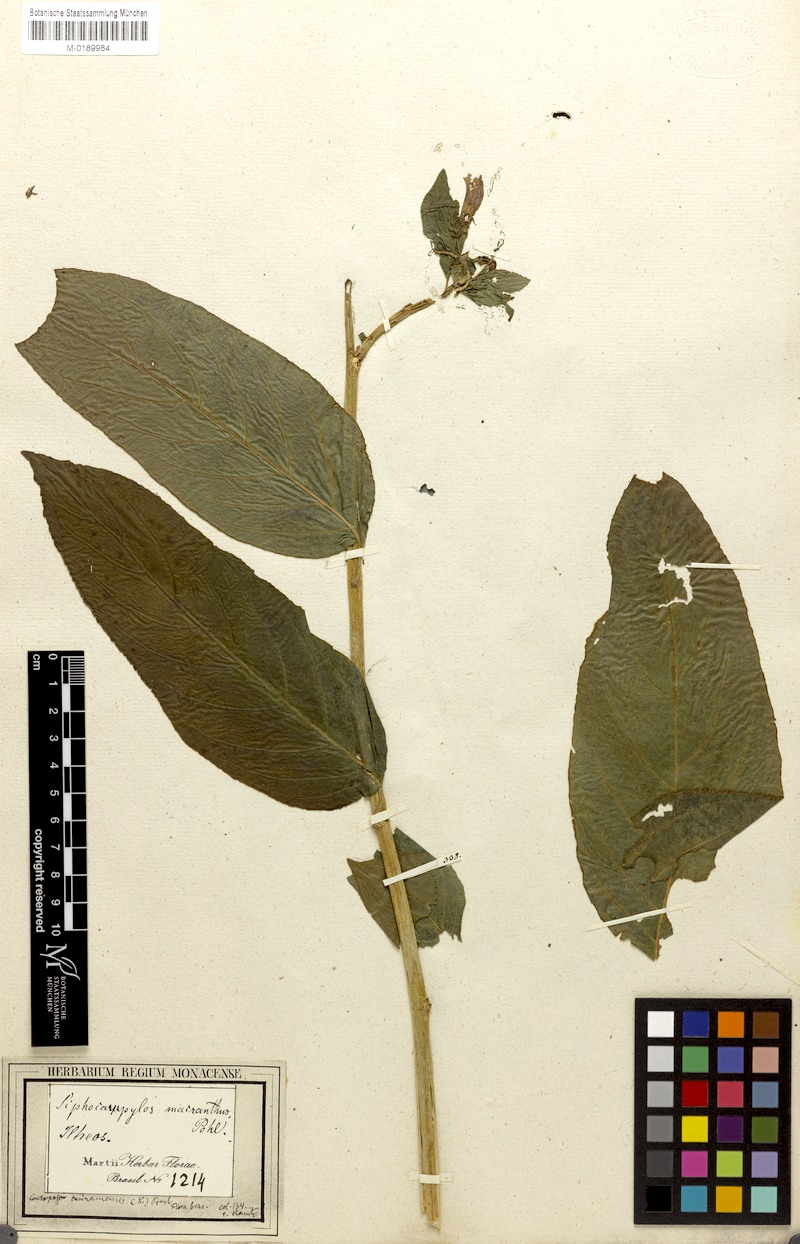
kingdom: Plantae
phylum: Tracheophyta
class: Magnoliopsida
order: Asterales
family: Campanulaceae
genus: Centropogon
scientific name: Centropogon cornutus
